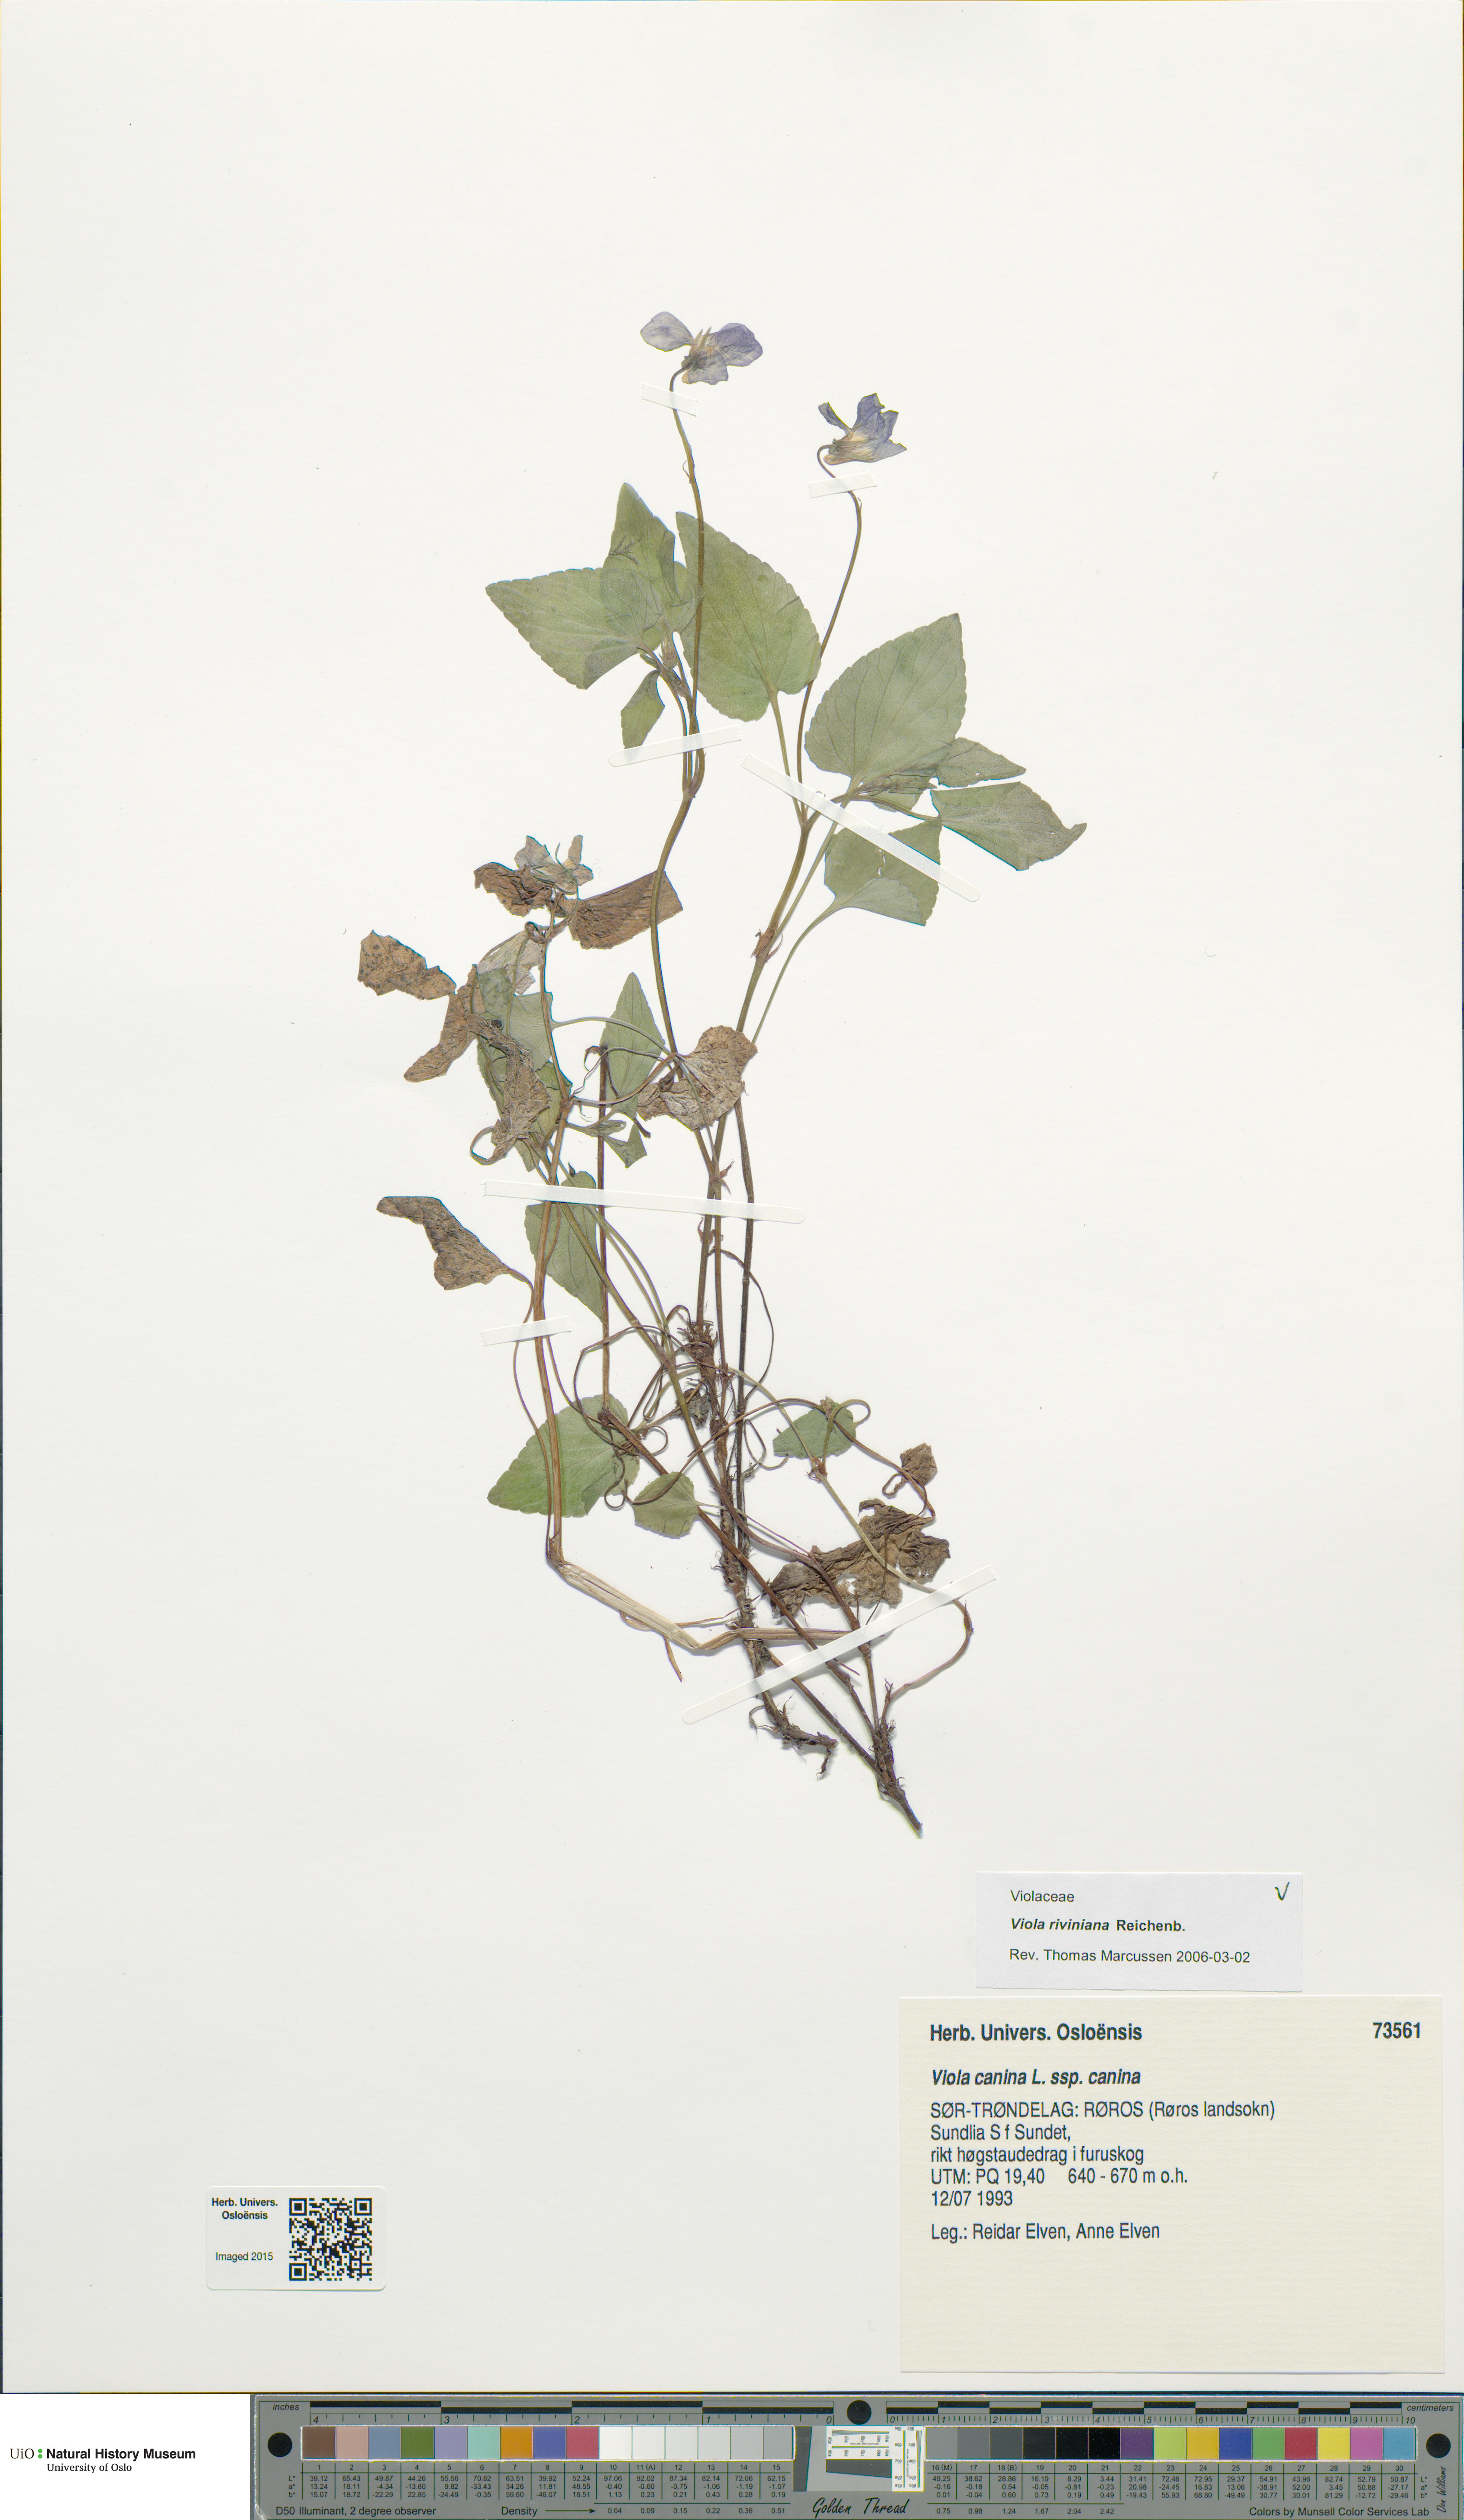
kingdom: Plantae
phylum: Tracheophyta
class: Magnoliopsida
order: Malpighiales
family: Violaceae
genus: Viola
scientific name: Viola riviniana
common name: Common dog-violet
